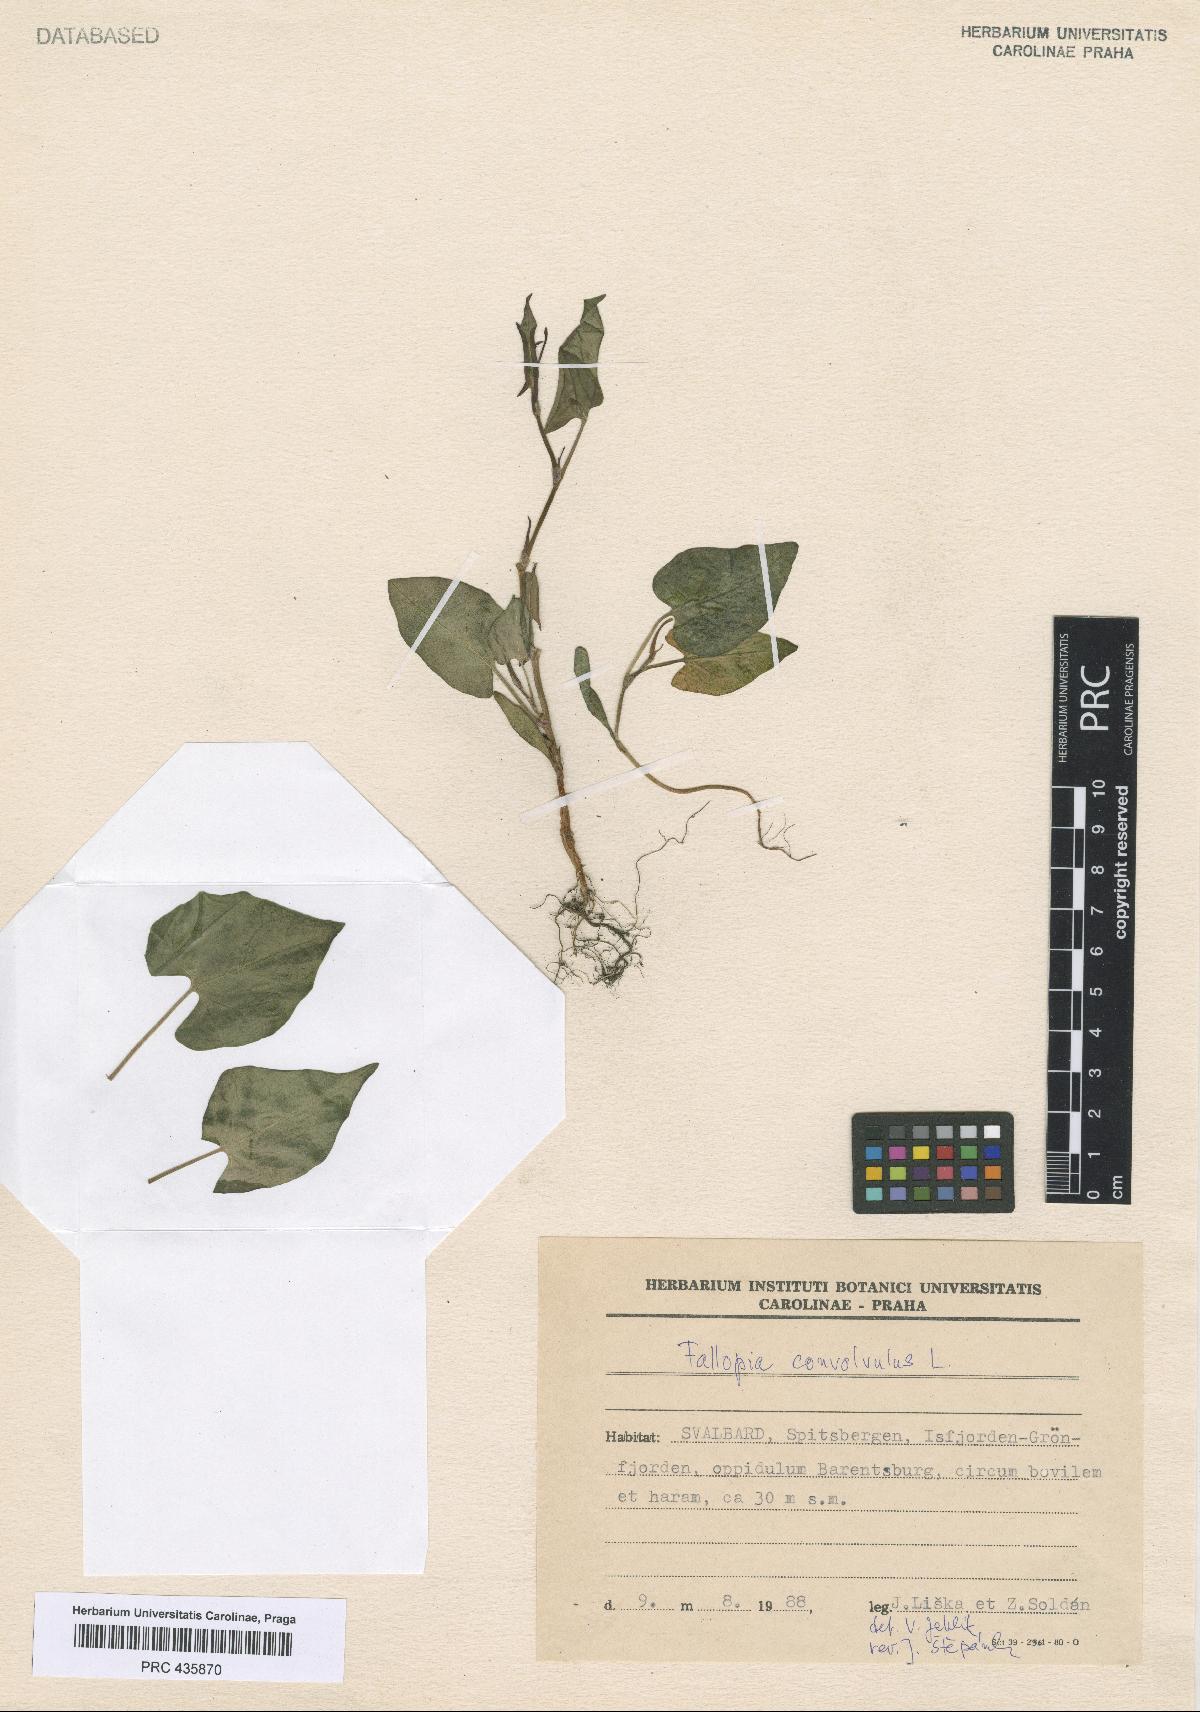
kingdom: Plantae
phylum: Tracheophyta
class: Magnoliopsida
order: Caryophyllales
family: Polygonaceae
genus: Fallopia
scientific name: Fallopia convolvulus
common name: Black bindweed
